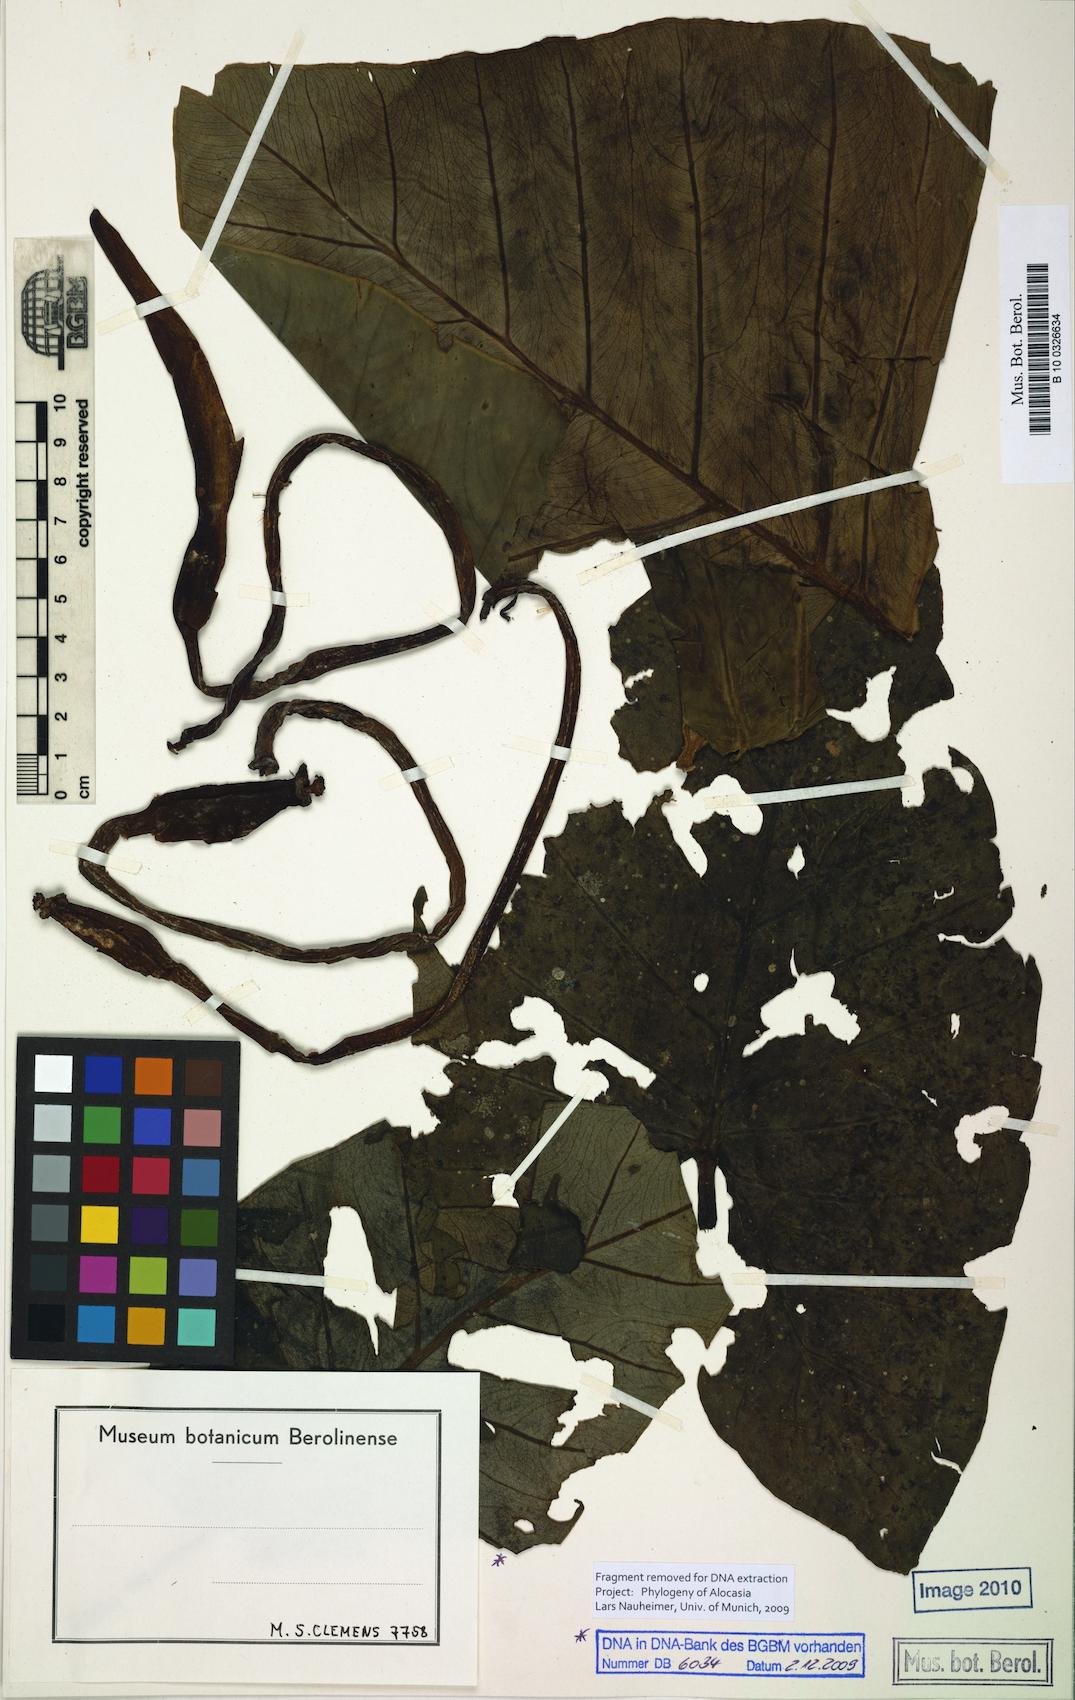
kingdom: Plantae
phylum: Tracheophyta
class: Liliopsida
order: Alismatales
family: Araceae
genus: Alocasia
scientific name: Alocasia nicolsonii
